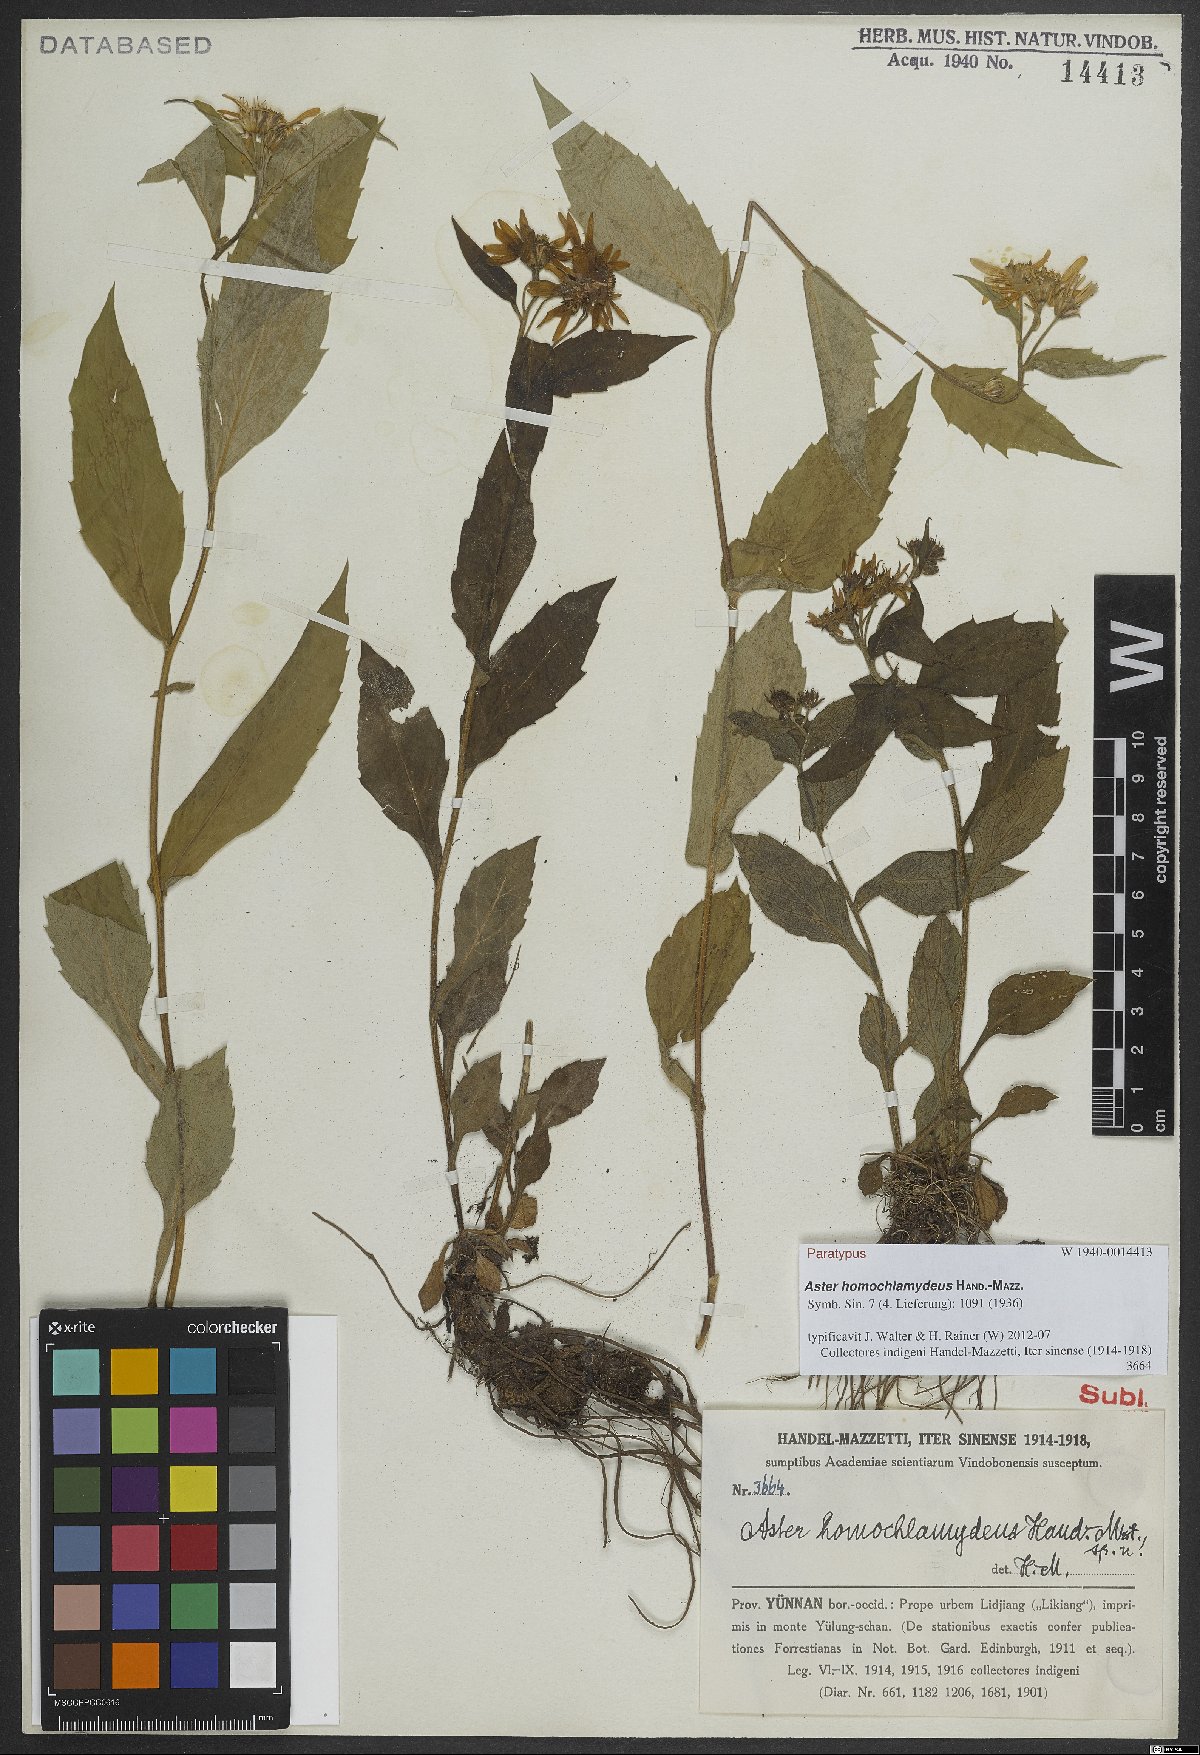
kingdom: Plantae
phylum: Tracheophyta
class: Magnoliopsida
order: Asterales
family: Asteraceae
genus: Aster
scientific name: Aster homochlamydeus
